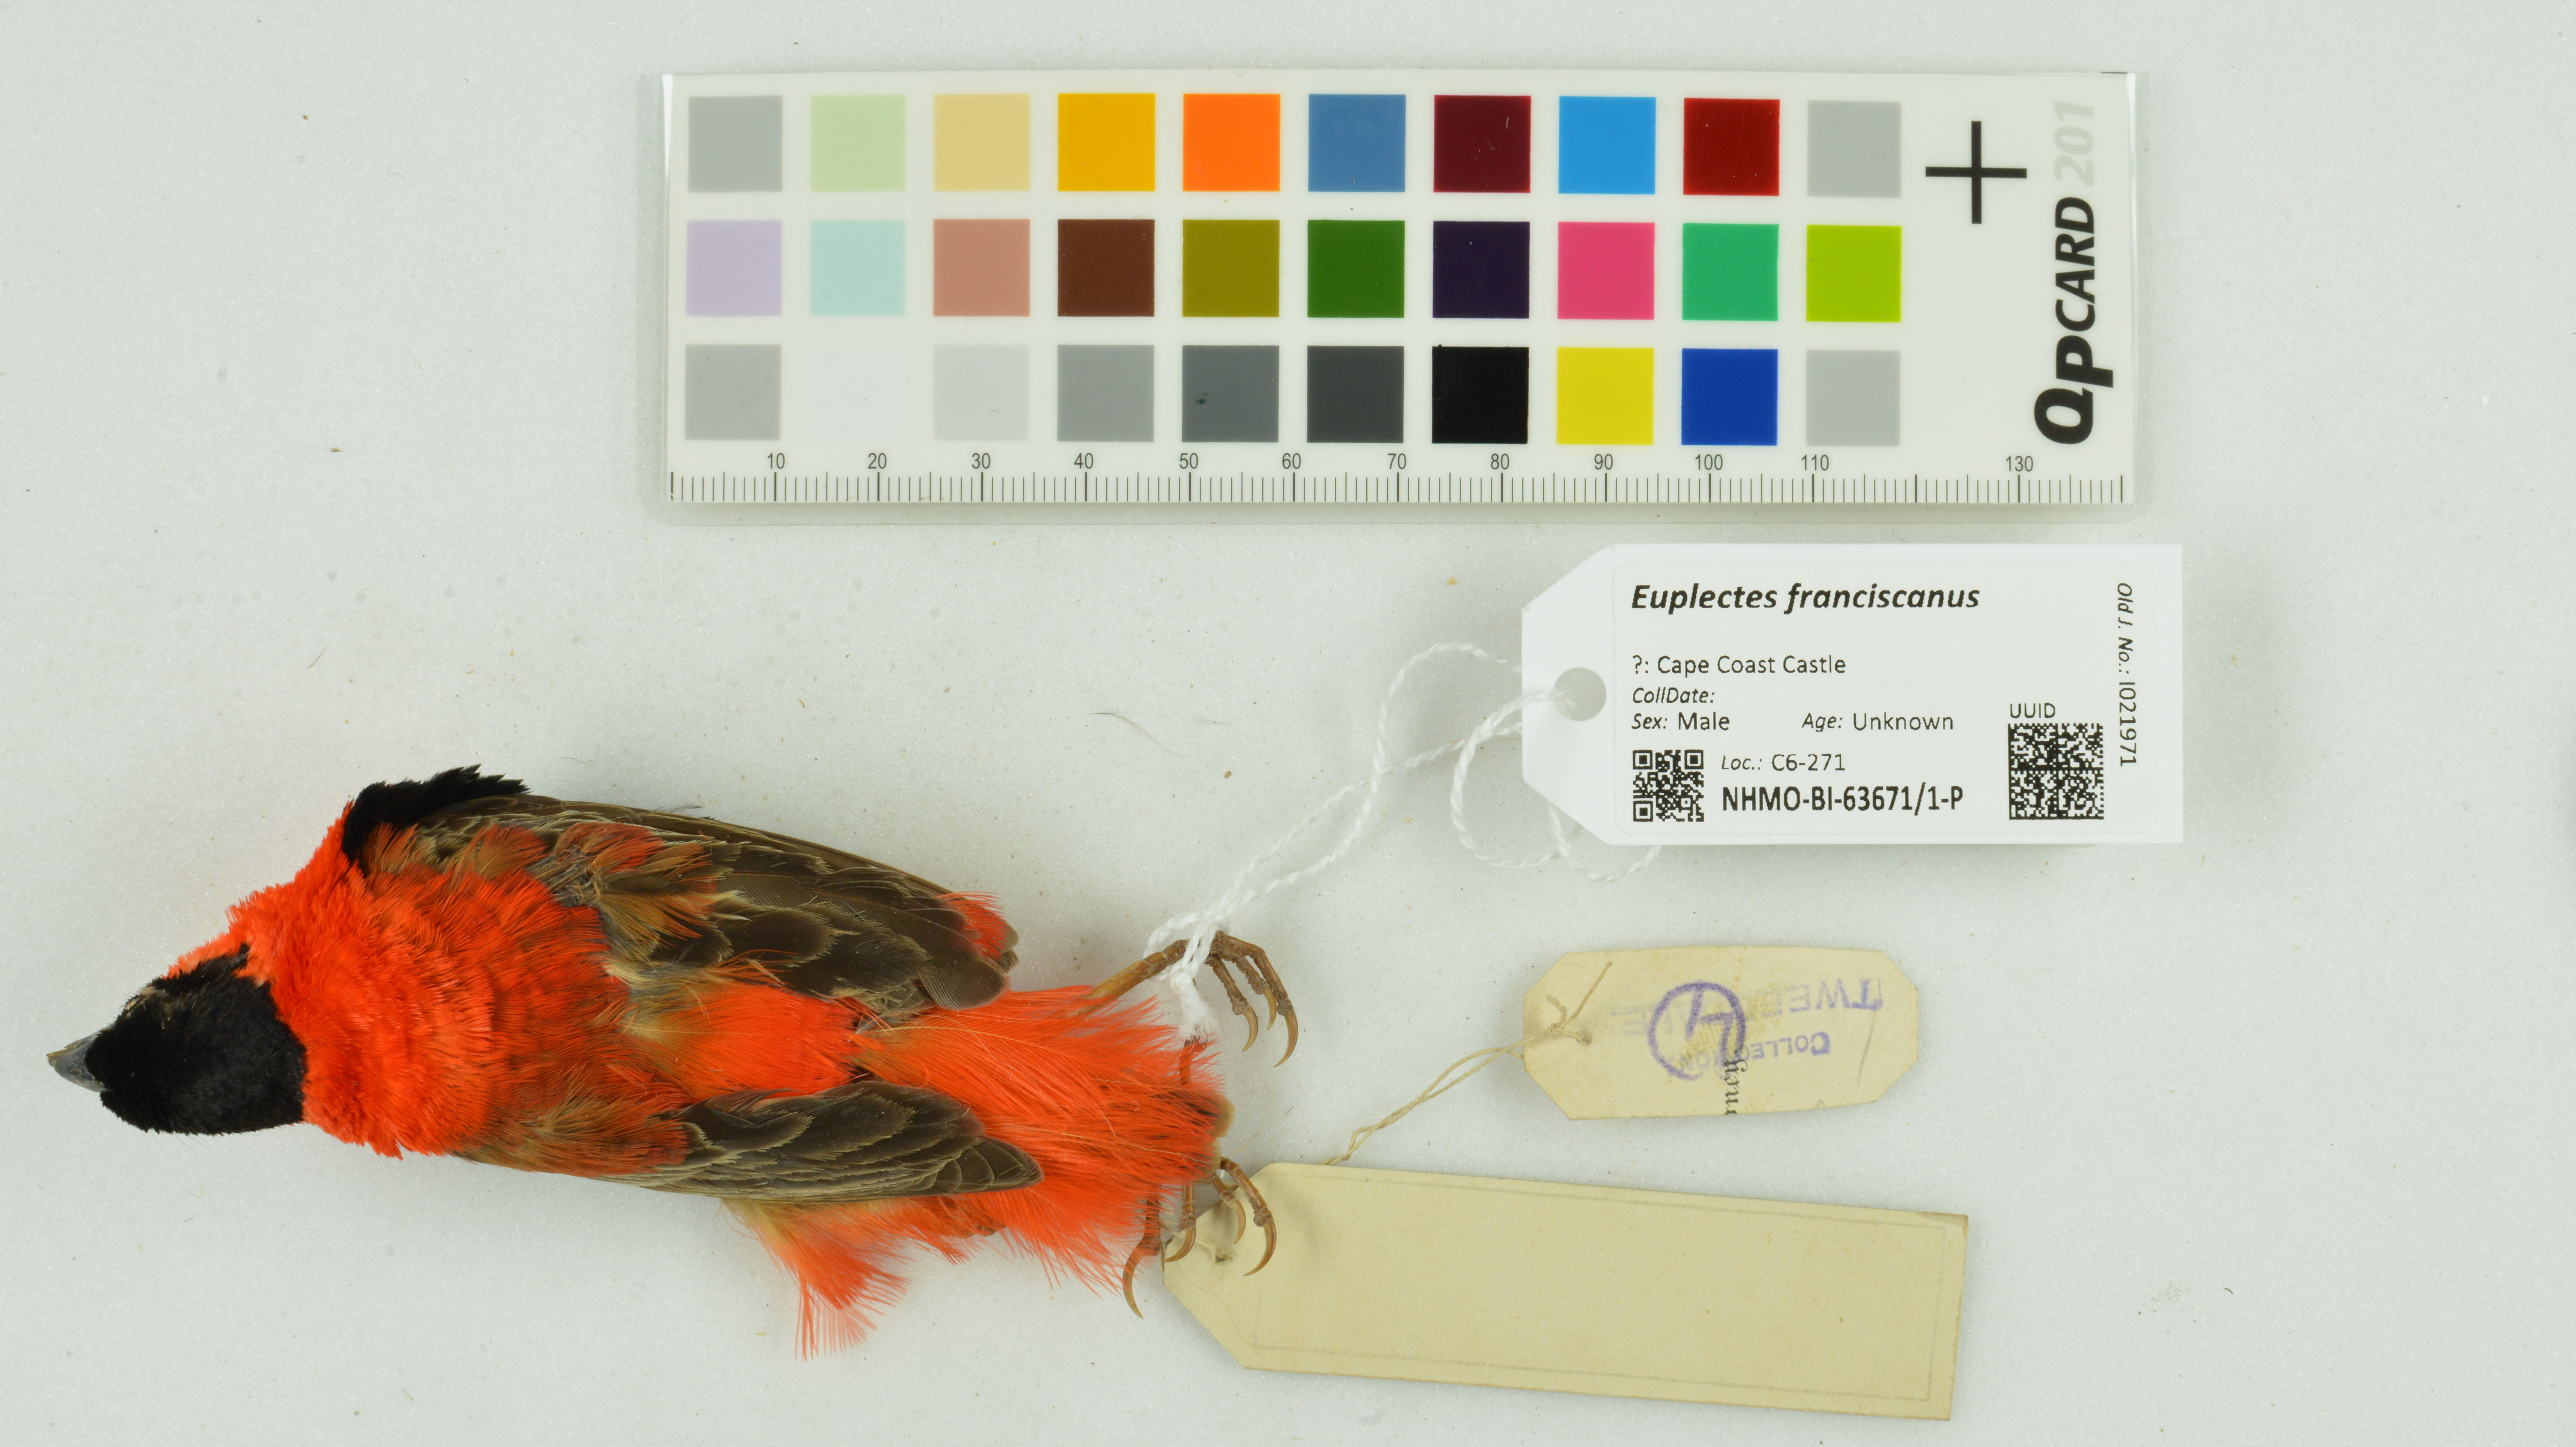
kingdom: Animalia
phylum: Chordata
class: Aves
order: Passeriformes
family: Ploceidae
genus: Euplectes
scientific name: Euplectes franciscanus
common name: Northern red bishop
